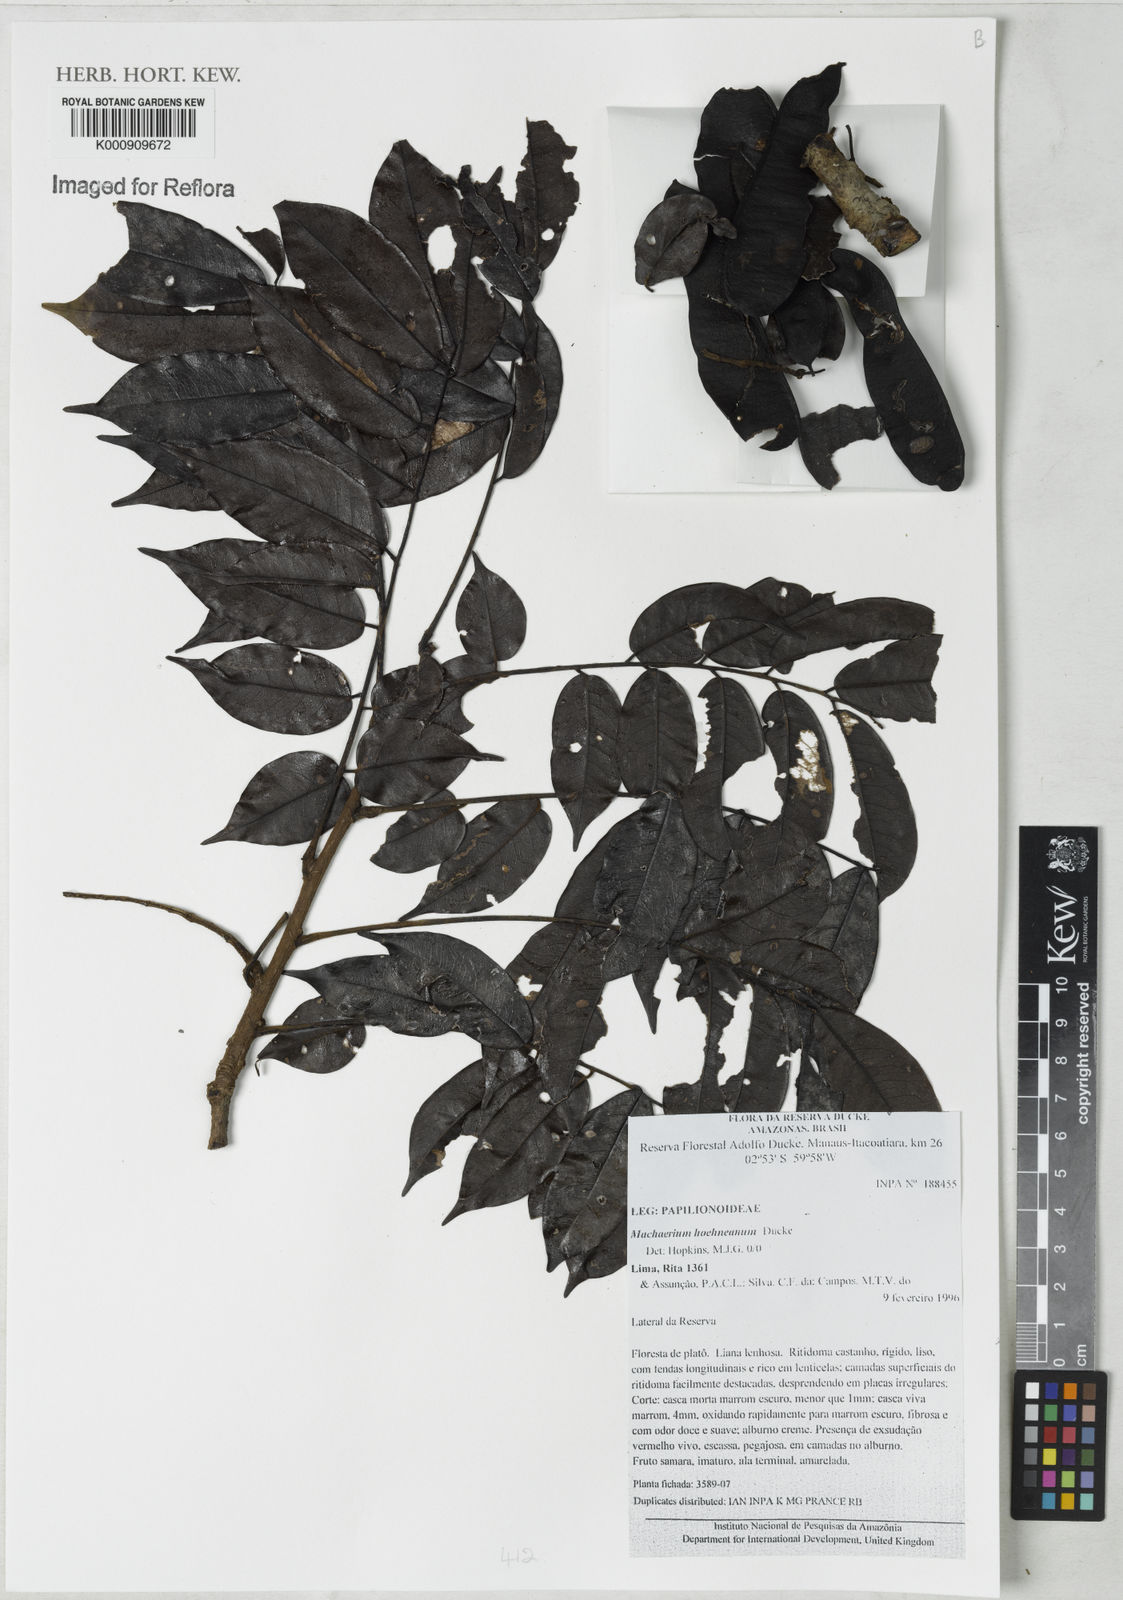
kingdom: Plantae
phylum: Tracheophyta
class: Magnoliopsida
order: Fabales
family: Fabaceae
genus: Machaerium
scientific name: Machaerium hoehneanum
